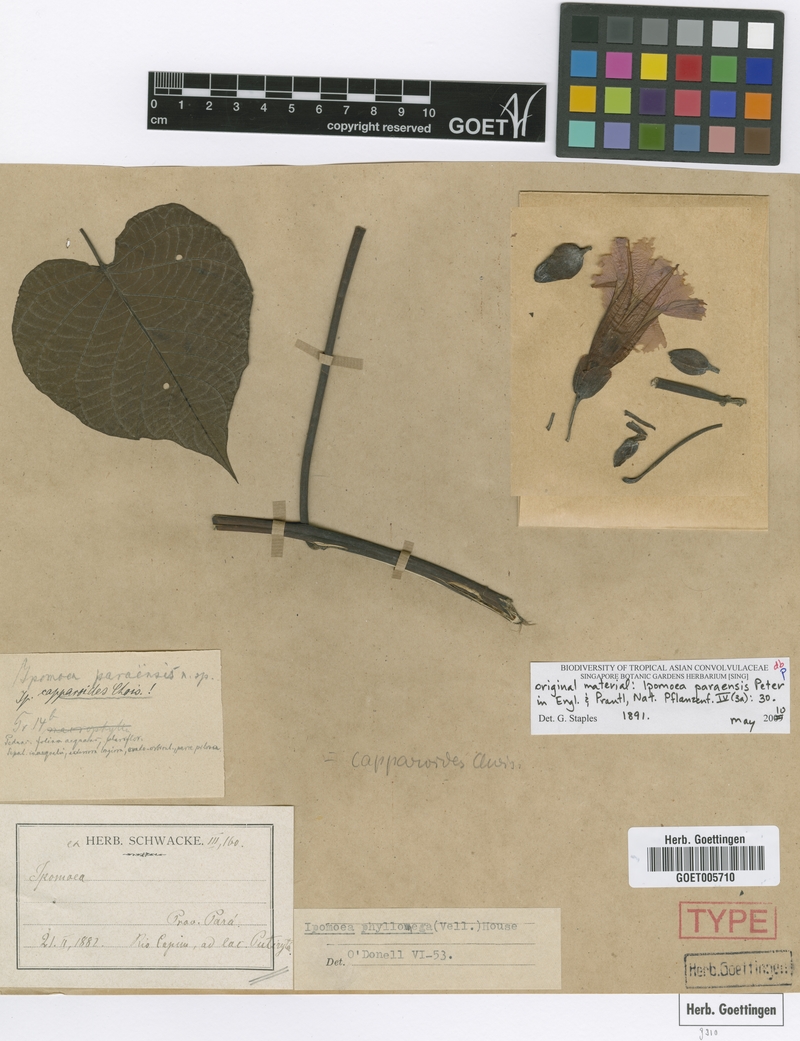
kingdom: Plantae
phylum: Tracheophyta
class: Magnoliopsida
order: Solanales
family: Convolvulaceae
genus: Ipomoea
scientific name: Ipomoea philomega
